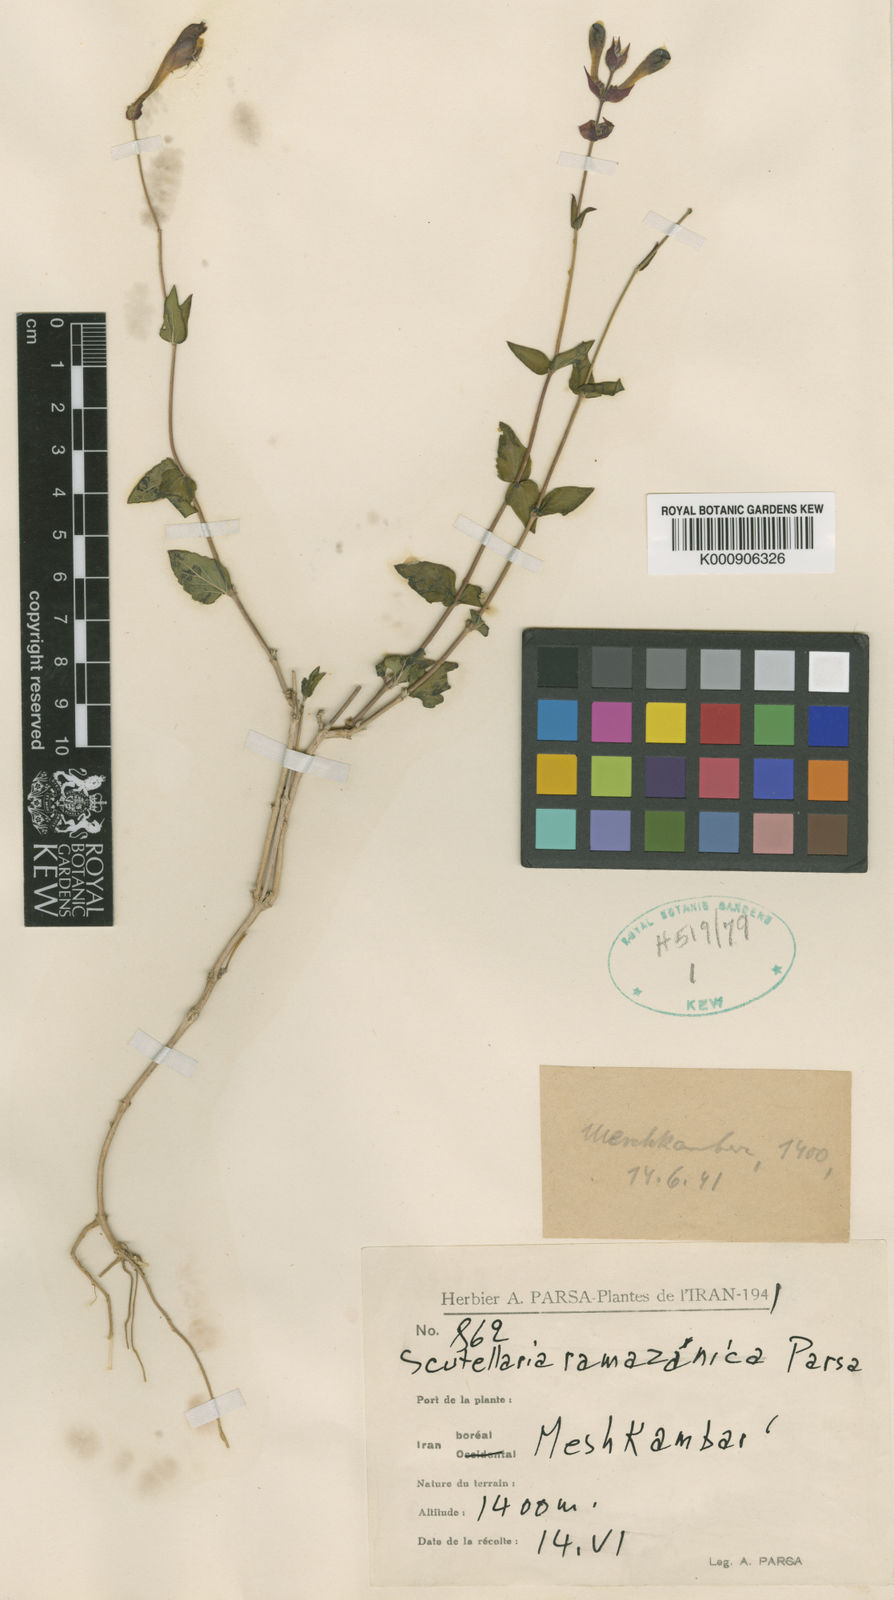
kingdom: Plantae
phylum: Tracheophyta
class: Magnoliopsida
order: Lamiales
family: Lamiaceae
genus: Scutellaria
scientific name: Scutellaria
